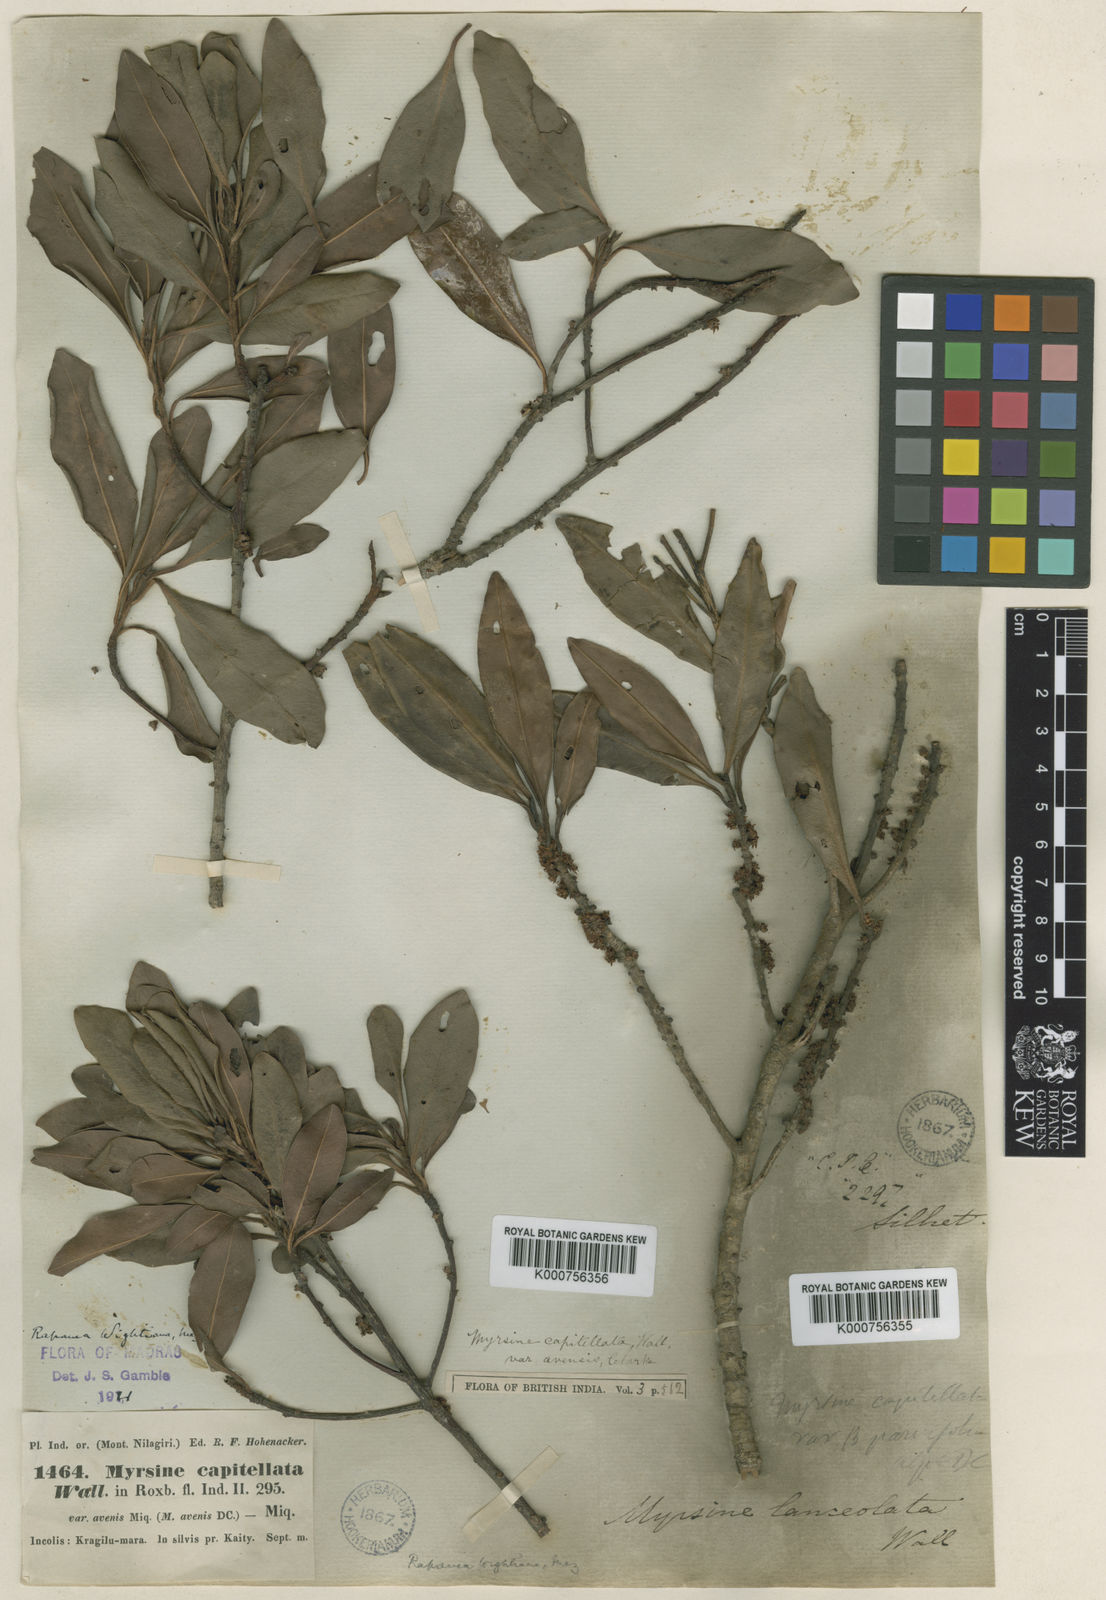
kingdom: Plantae
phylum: Tracheophyta
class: Magnoliopsida
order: Ericales
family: Primulaceae
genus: Myrsine
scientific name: Myrsine
